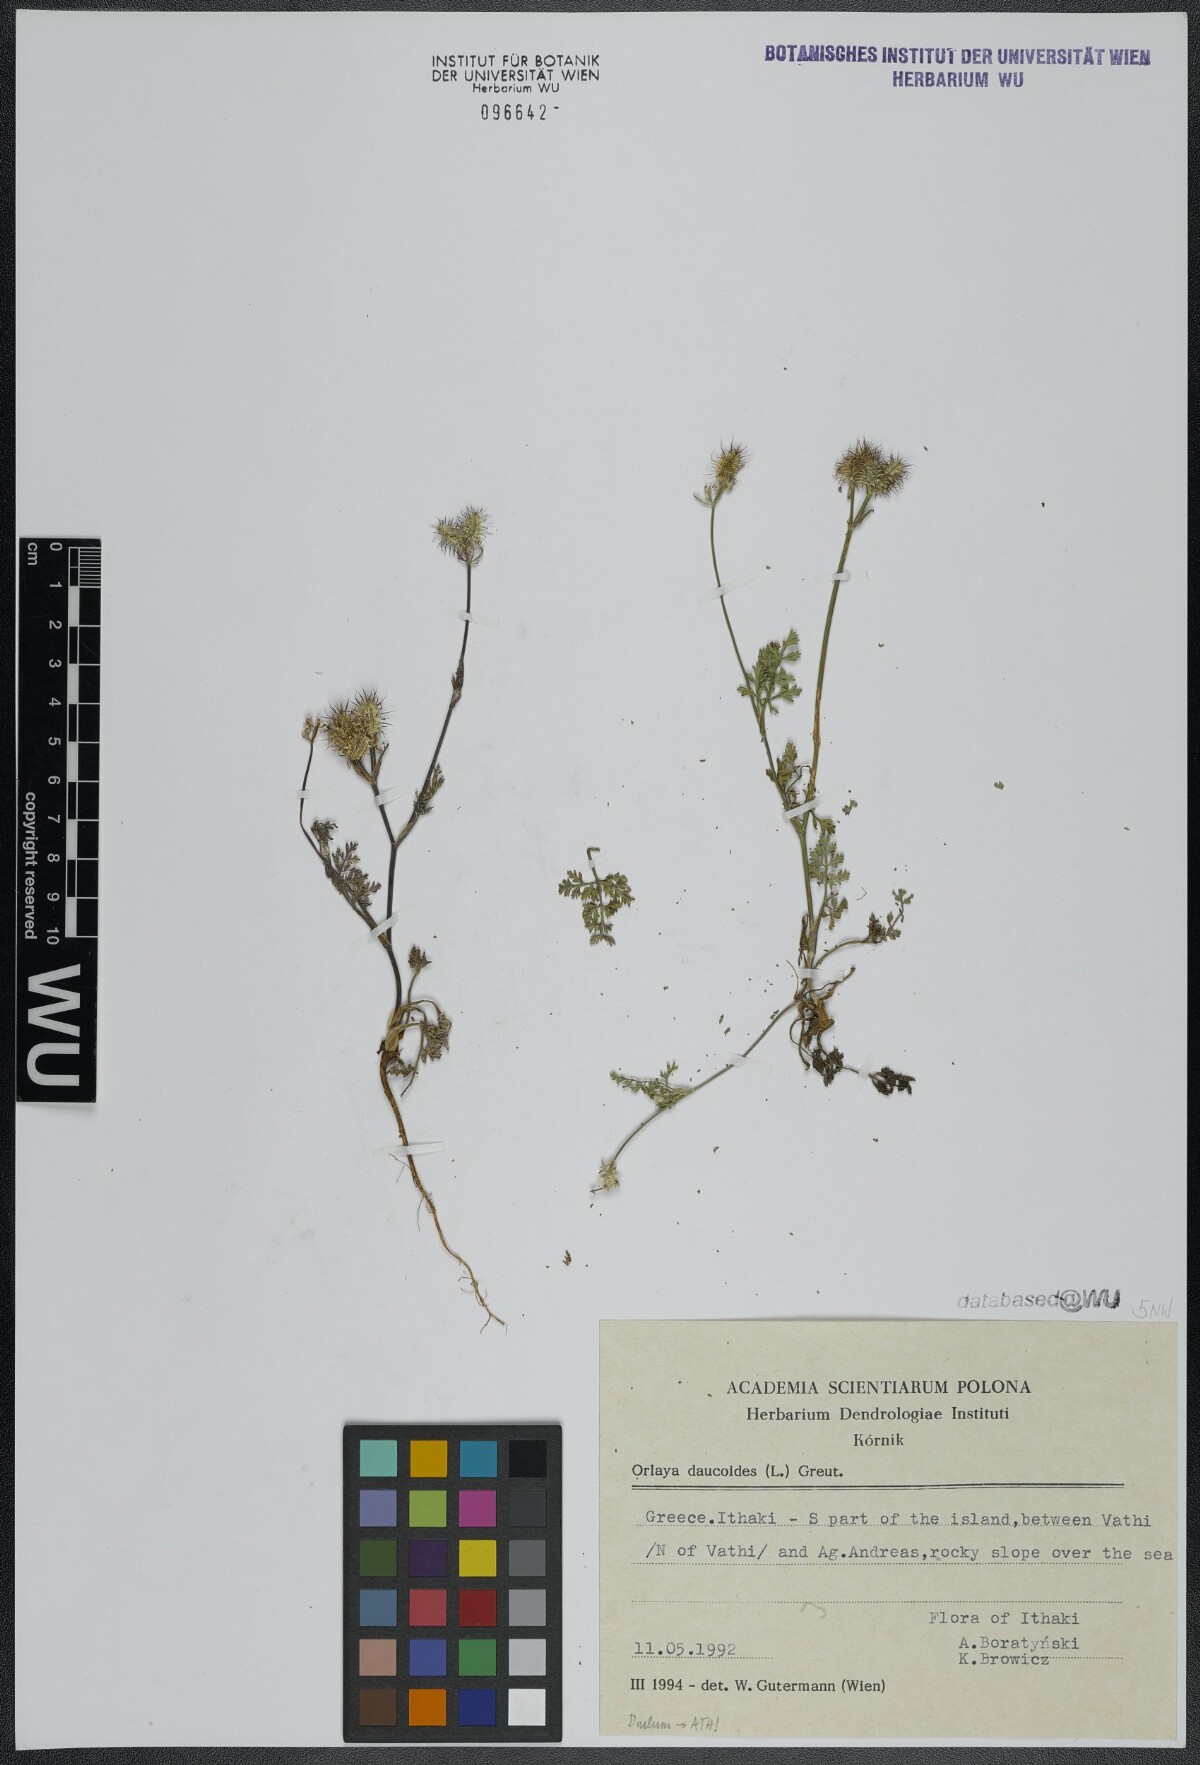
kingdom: Plantae
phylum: Tracheophyta
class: Magnoliopsida
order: Apiales
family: Apiaceae
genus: Orlaya
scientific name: Orlaya daucoides
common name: Flat-fruit orlaya
